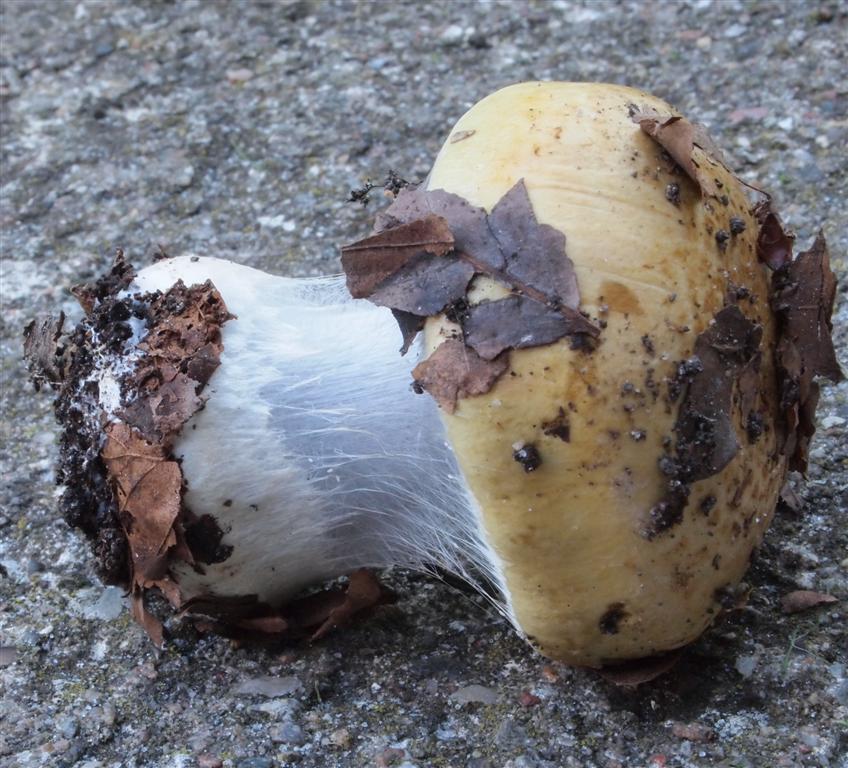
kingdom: Fungi
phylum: Basidiomycota
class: Agaricomycetes
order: Agaricales
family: Cortinariaceae
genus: Cortinarius
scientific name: Cortinarius anserinus
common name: bøge-slørhat
